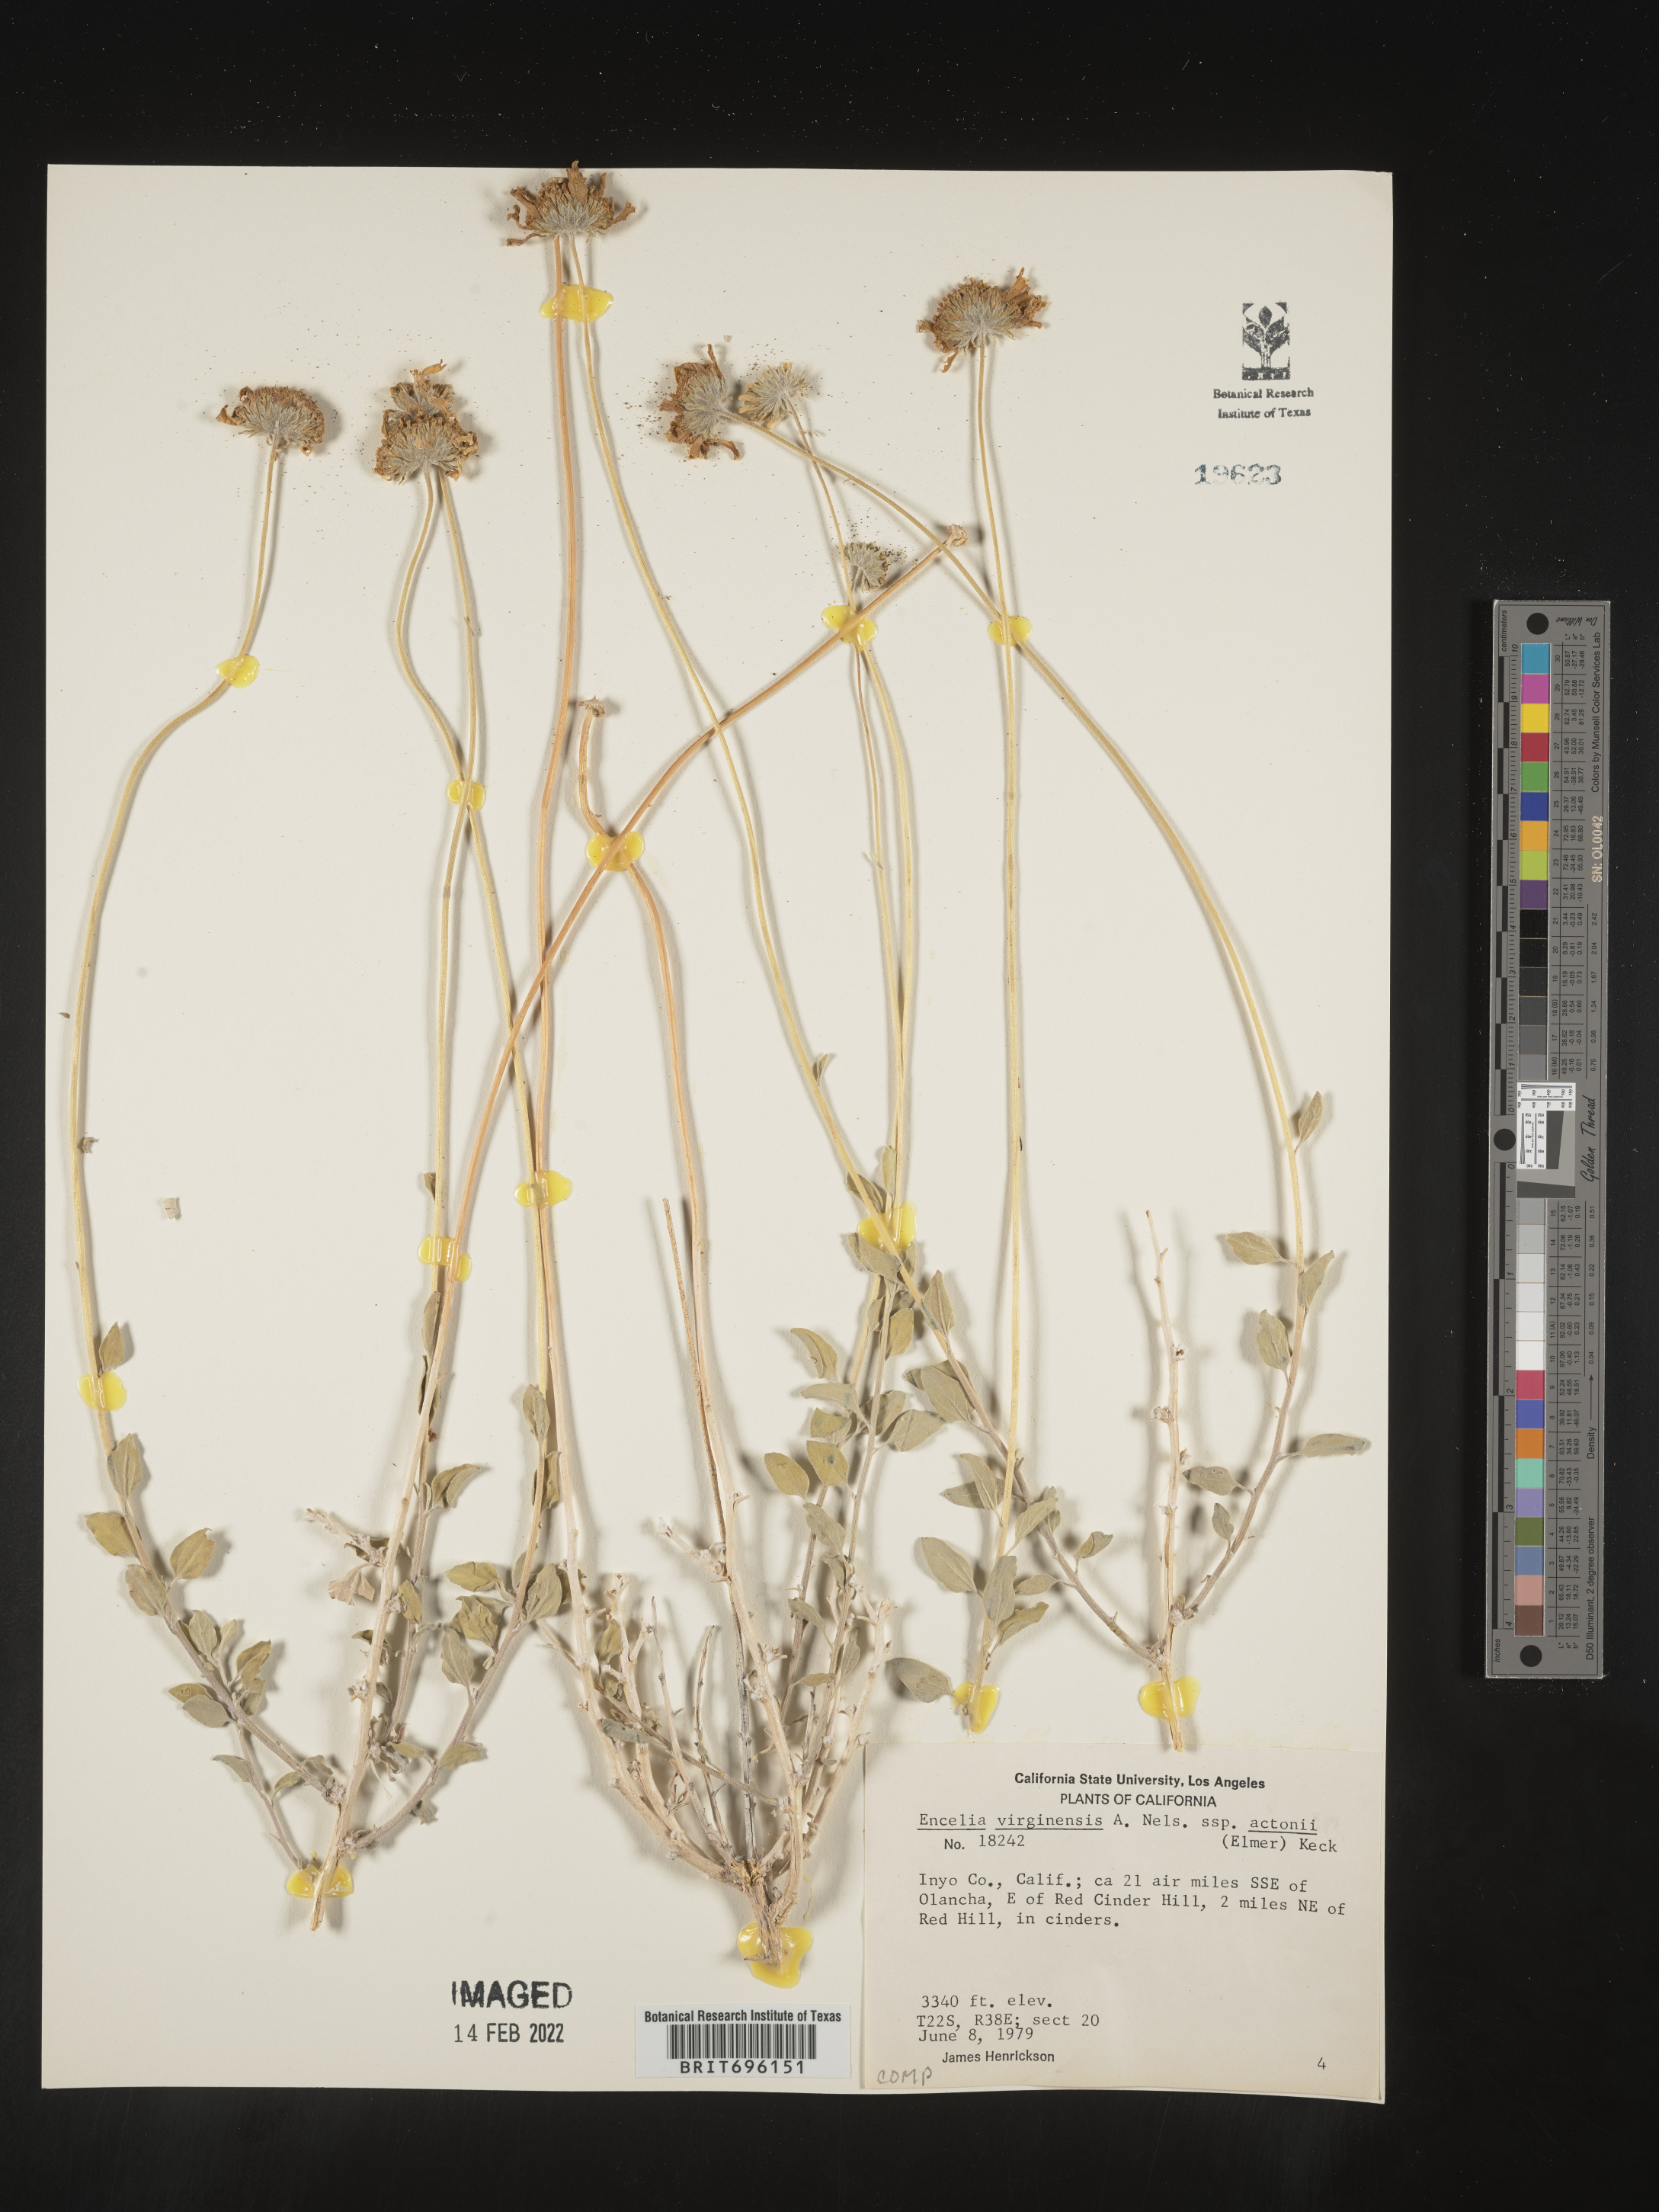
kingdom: Plantae
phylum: Tracheophyta
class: Magnoliopsida
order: Asterales
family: Asteraceae
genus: Encelia
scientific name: Encelia actoni
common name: Acton encelia
